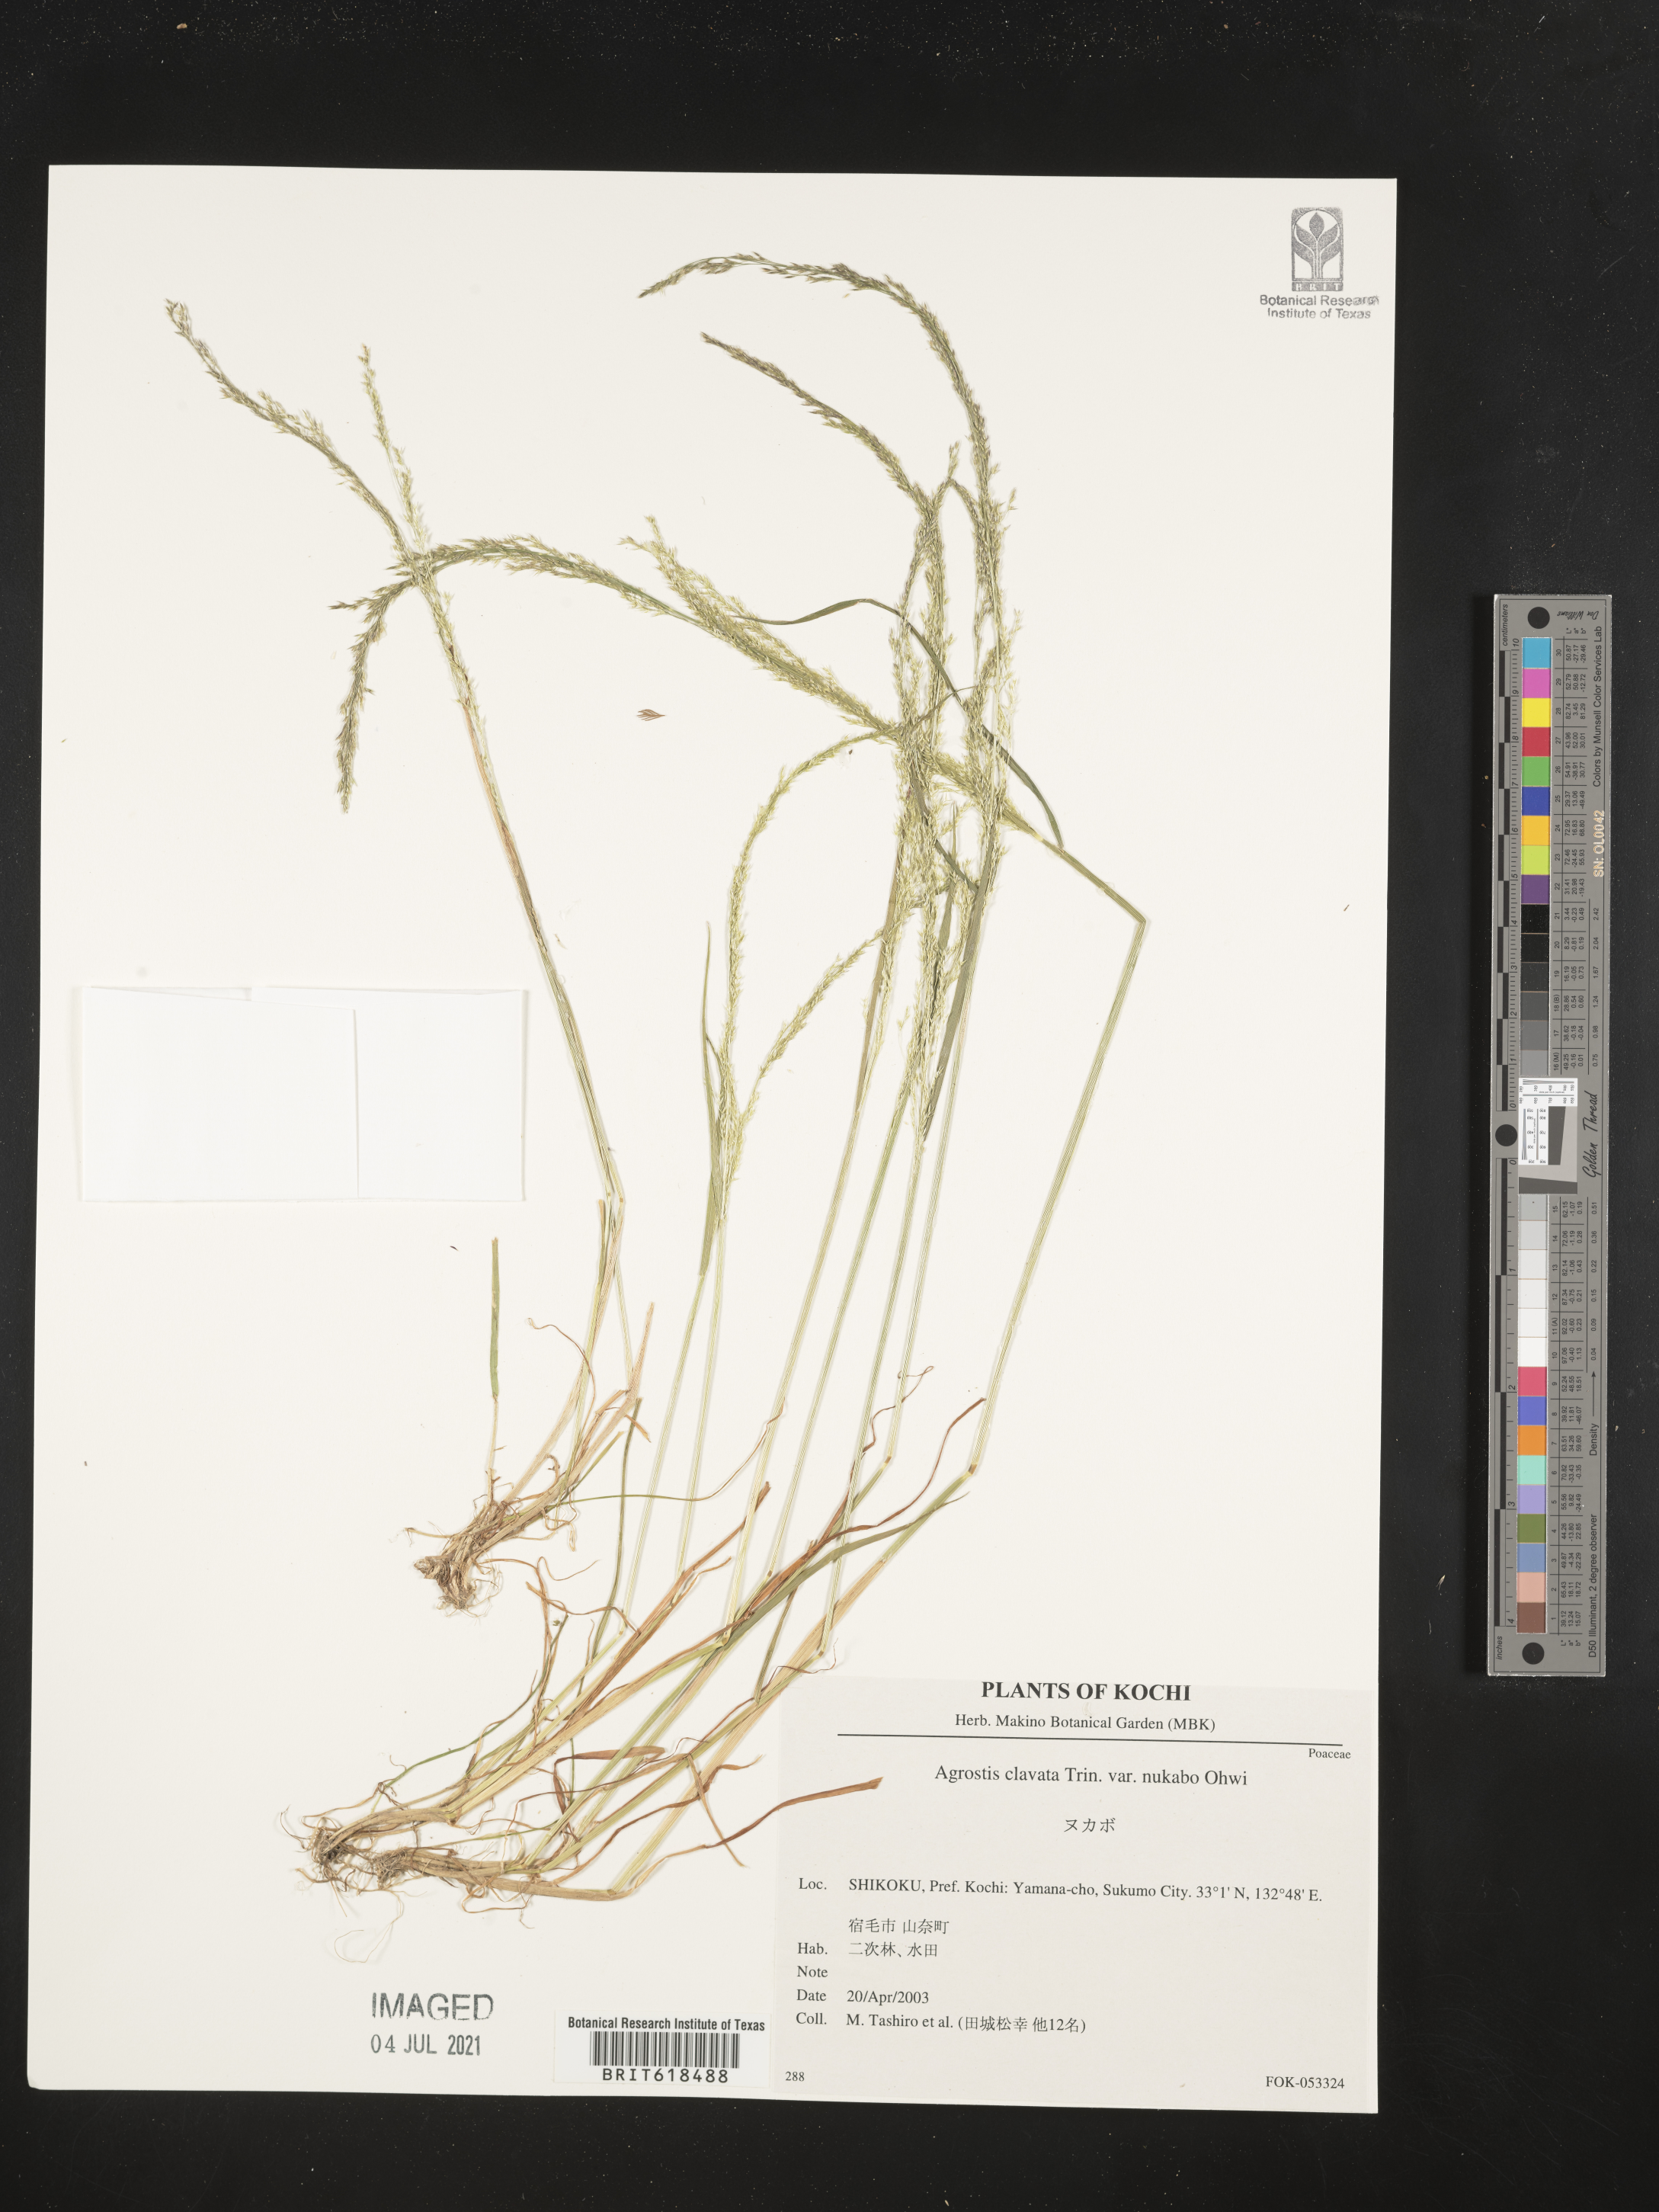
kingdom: Plantae
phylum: Tracheophyta
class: Liliopsida
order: Poales
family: Poaceae
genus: Agrostis
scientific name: Agrostis clavata
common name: Clavate bent
